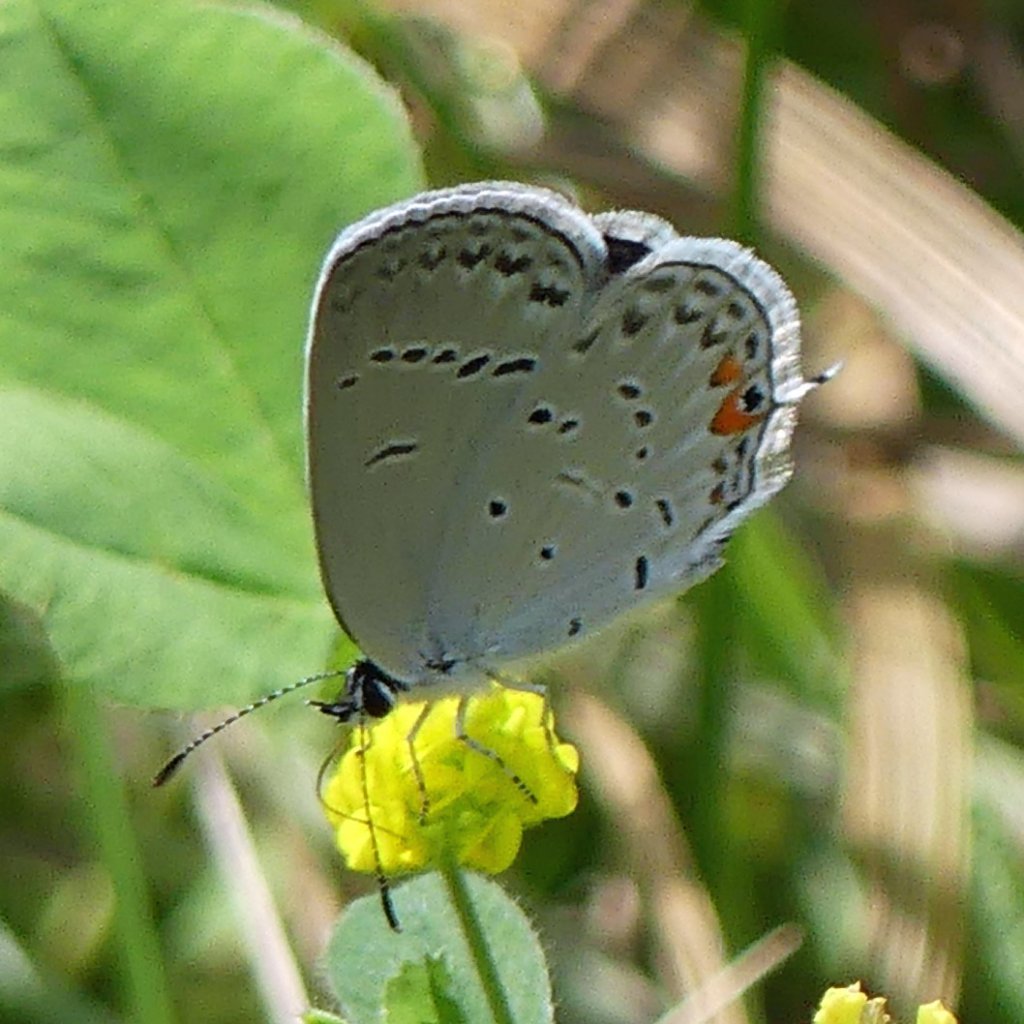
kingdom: Animalia
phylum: Arthropoda
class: Insecta
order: Lepidoptera
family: Lycaenidae
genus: Elkalyce
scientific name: Elkalyce comyntas
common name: Eastern Tailed-Blue
